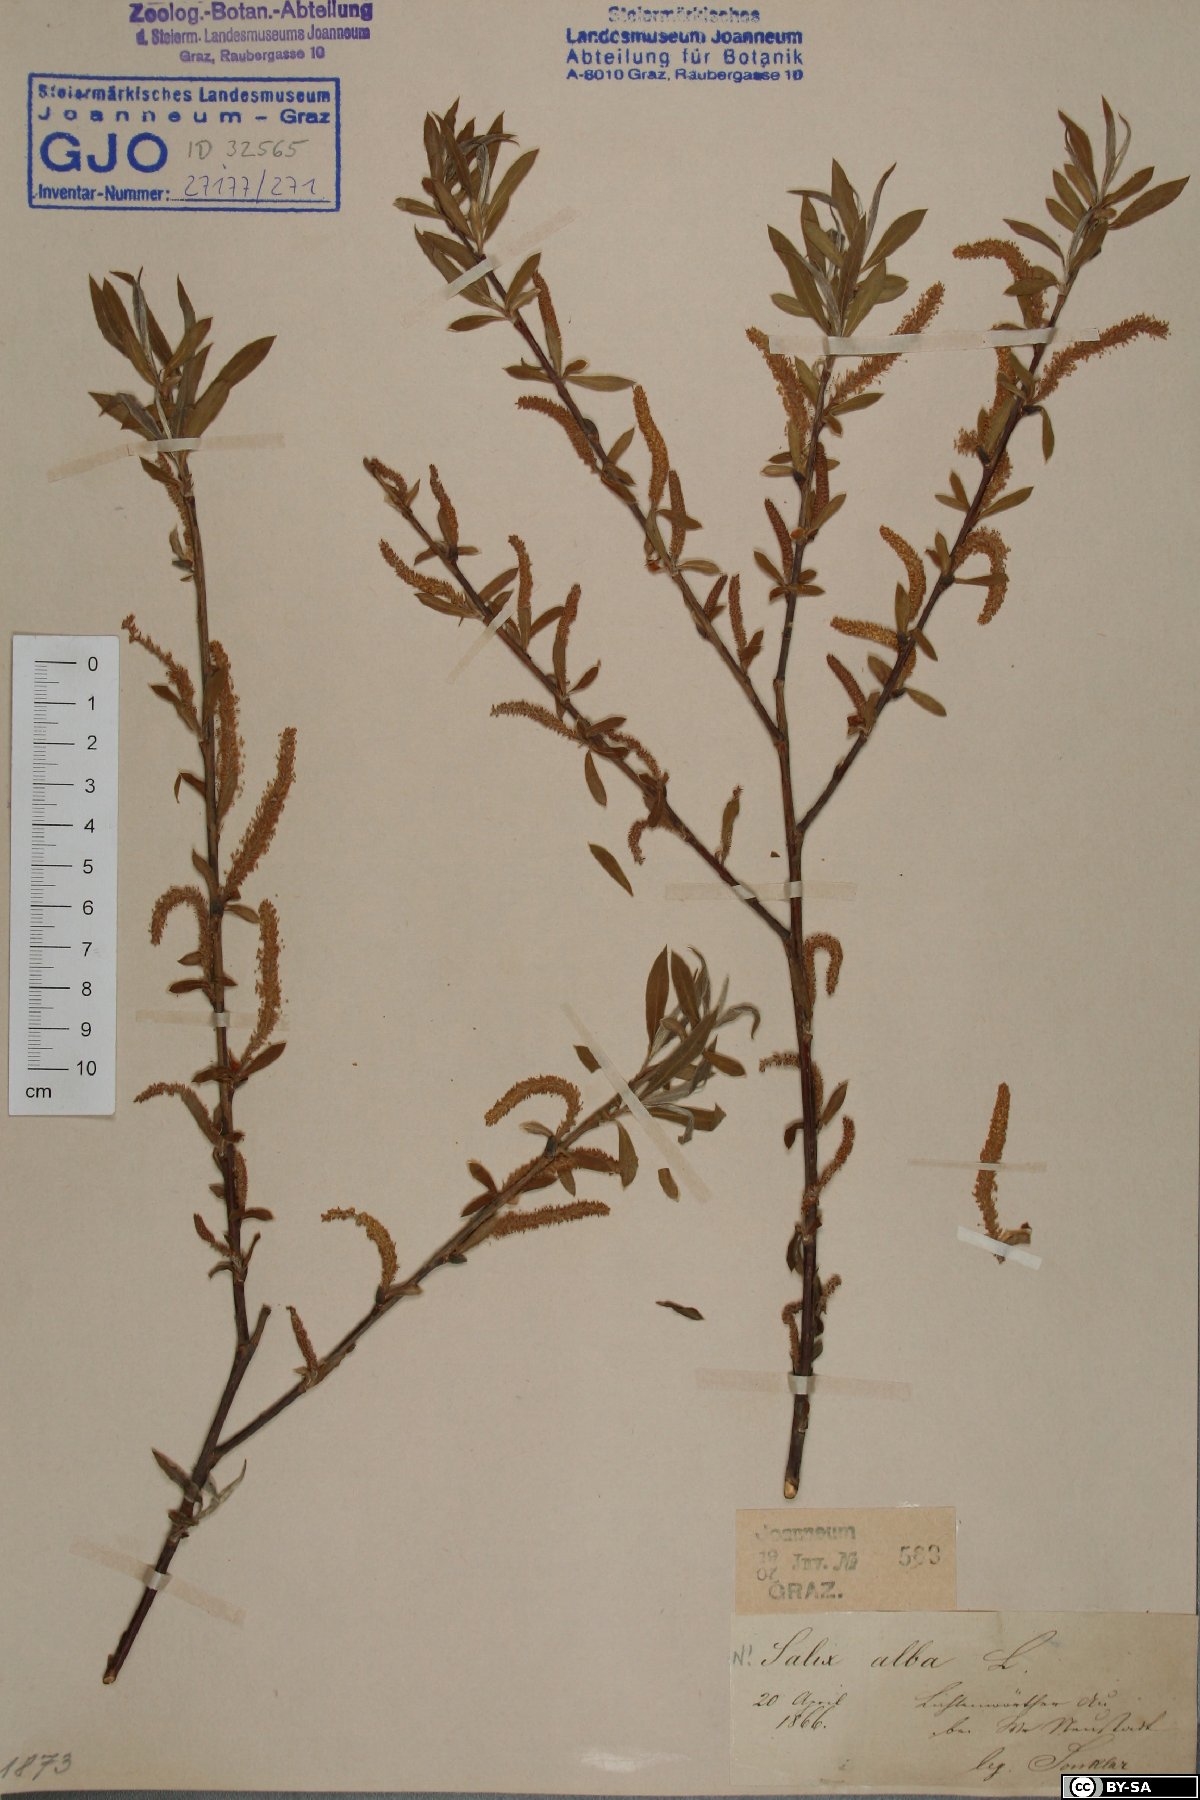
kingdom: Plantae
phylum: Tracheophyta
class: Magnoliopsida
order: Malpighiales
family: Salicaceae
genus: Salix
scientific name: Salix alba
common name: White willow
